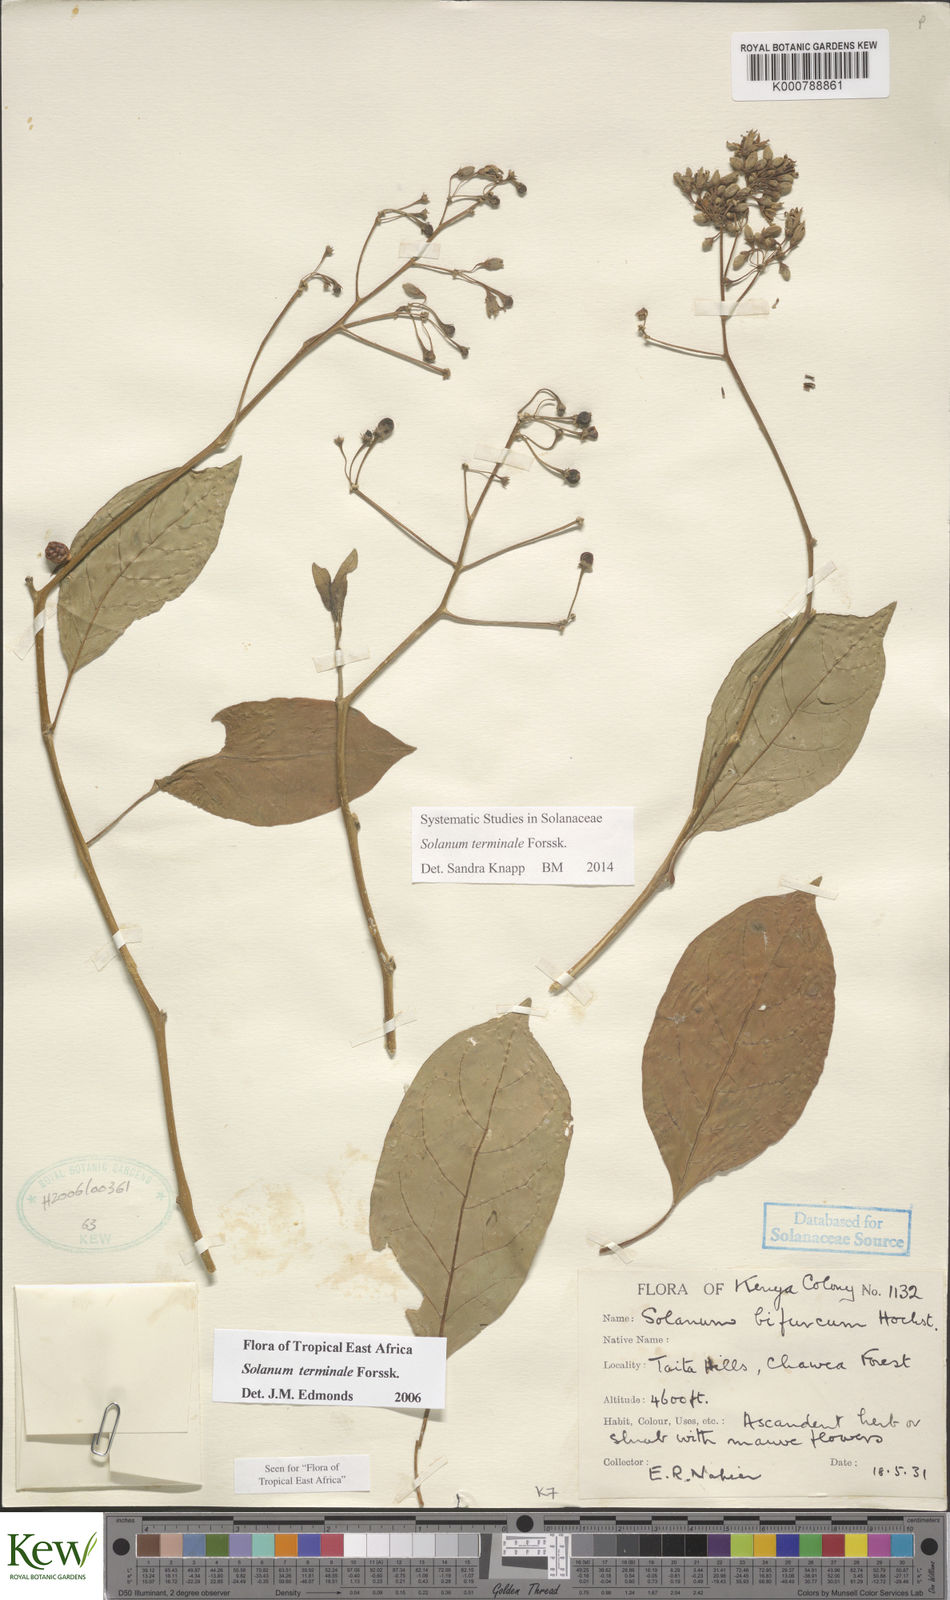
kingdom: Plantae
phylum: Tracheophyta
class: Magnoliopsida
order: Solanales
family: Solanaceae
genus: Solanum
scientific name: Solanum terminale
